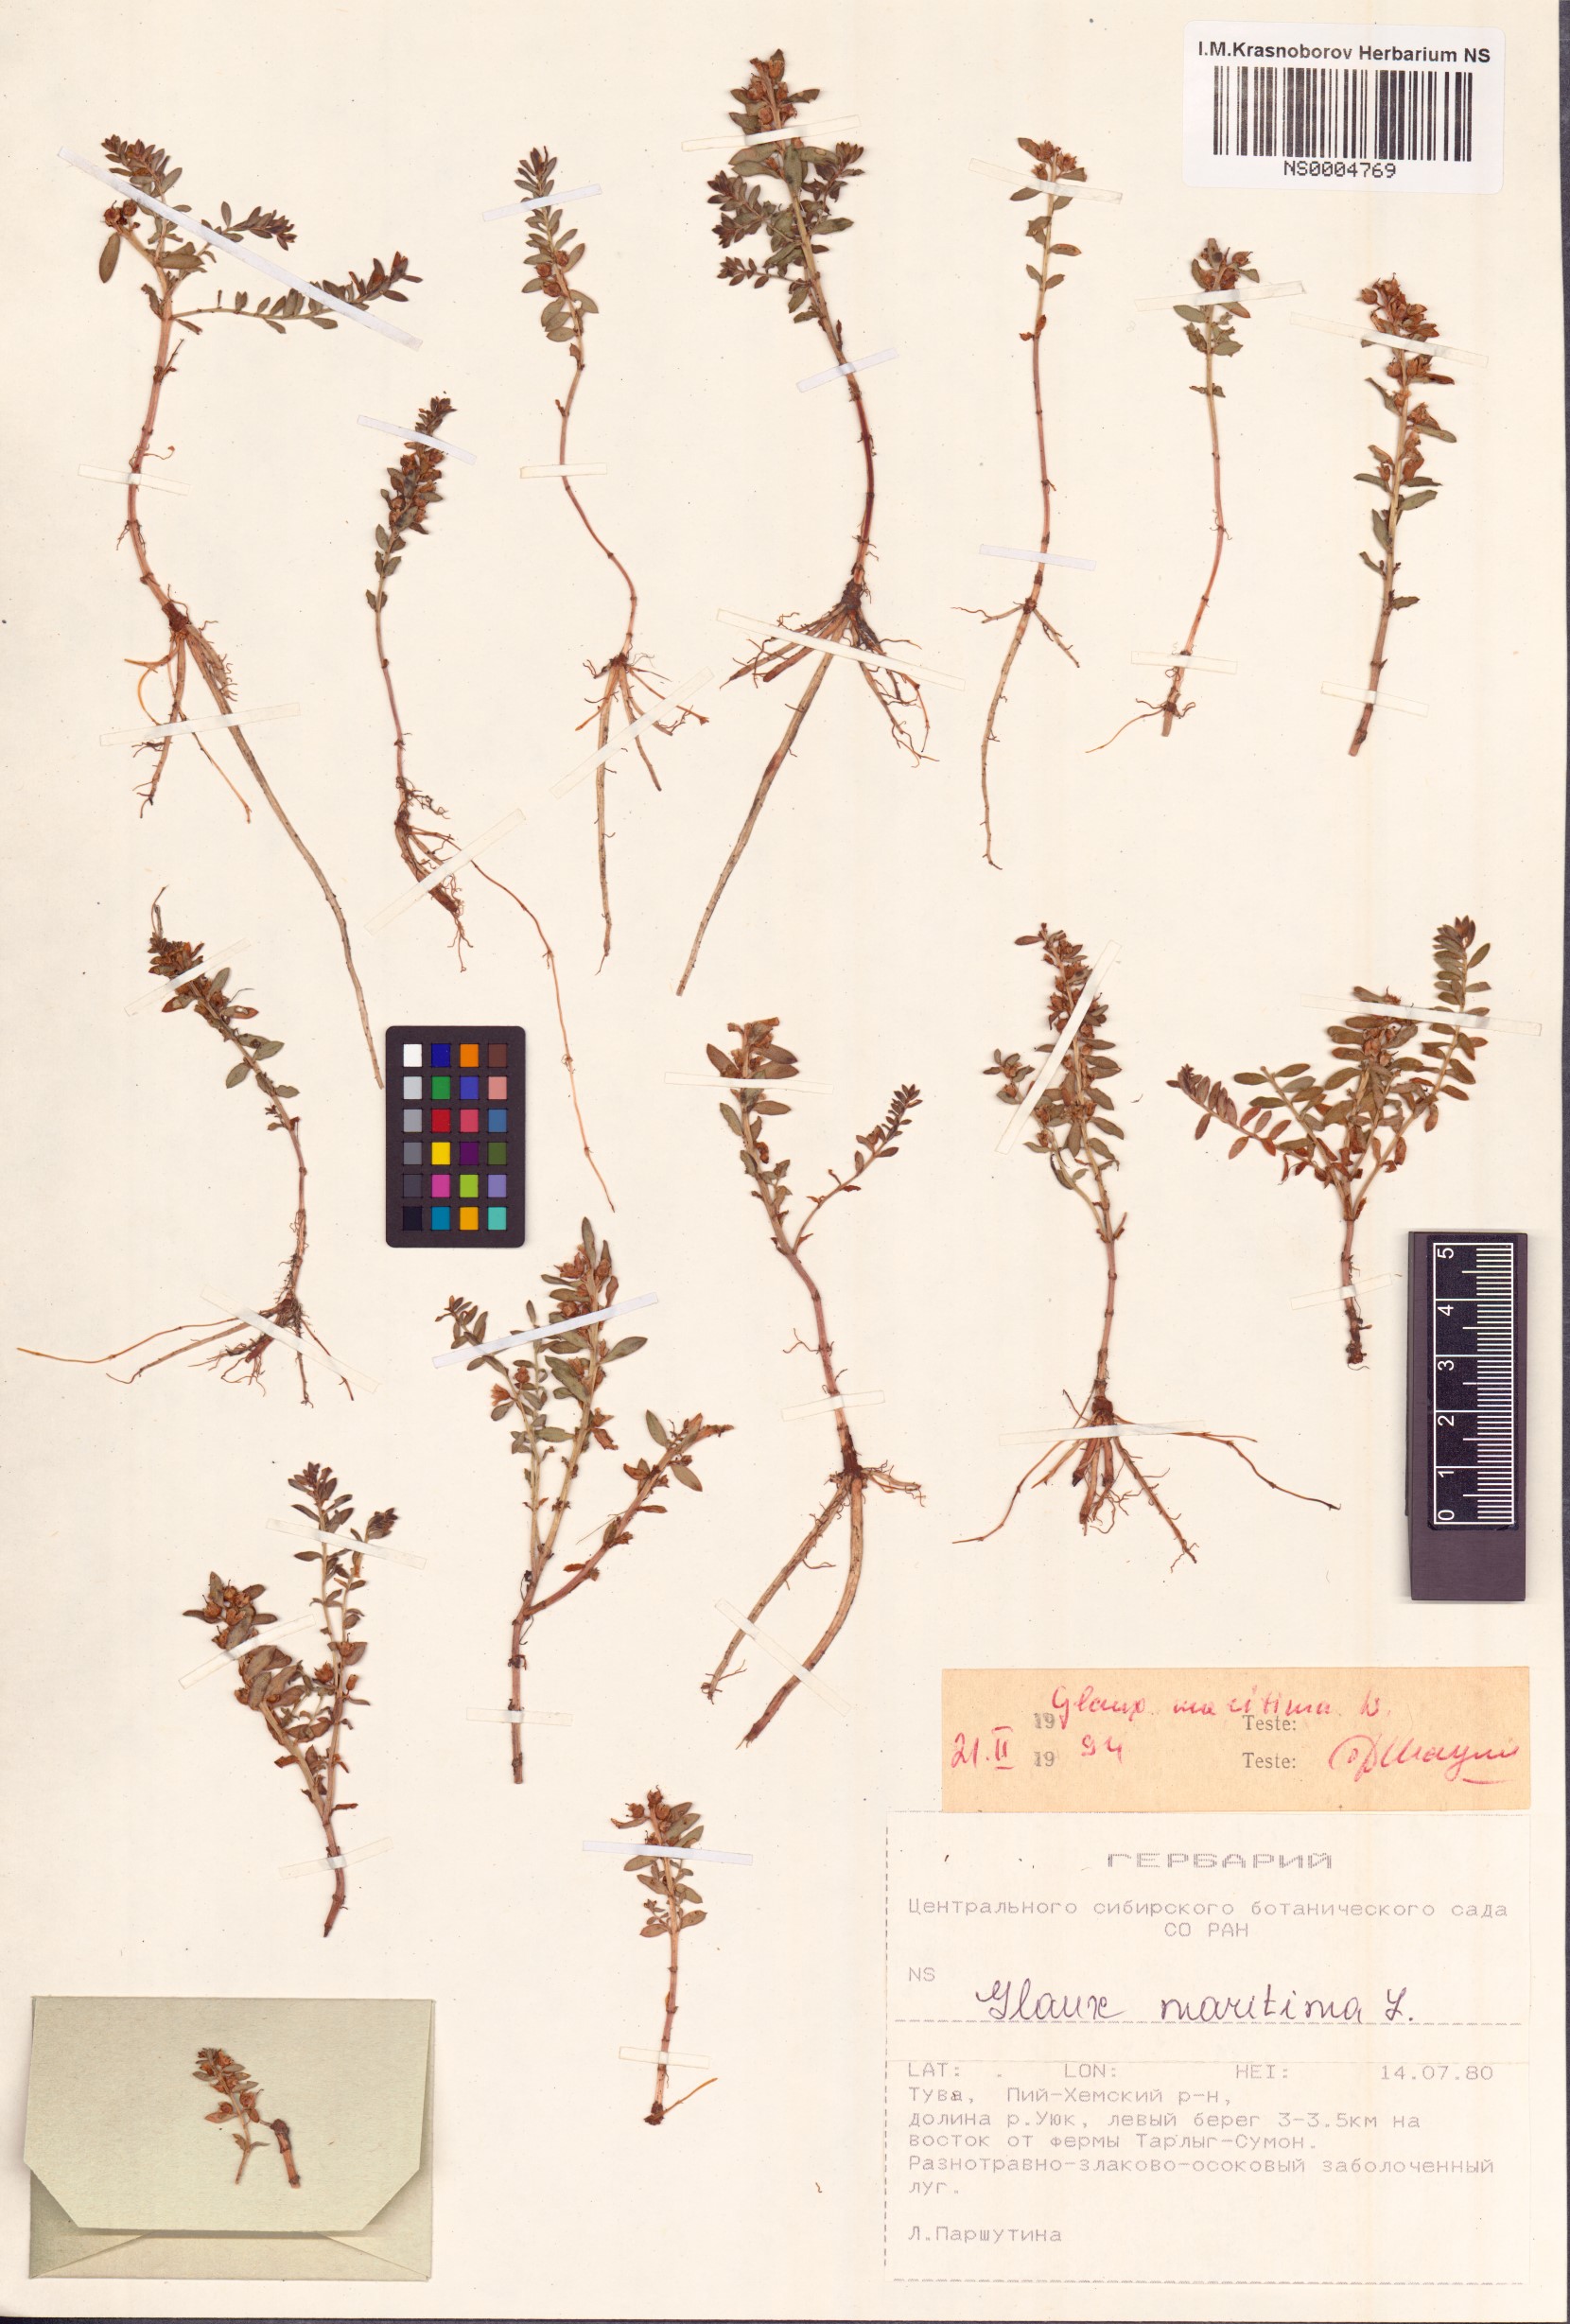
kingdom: Plantae
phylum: Tracheophyta
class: Magnoliopsida
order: Ericales
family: Primulaceae
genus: Lysimachia
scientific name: Lysimachia maritima
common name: Sea milkwort
